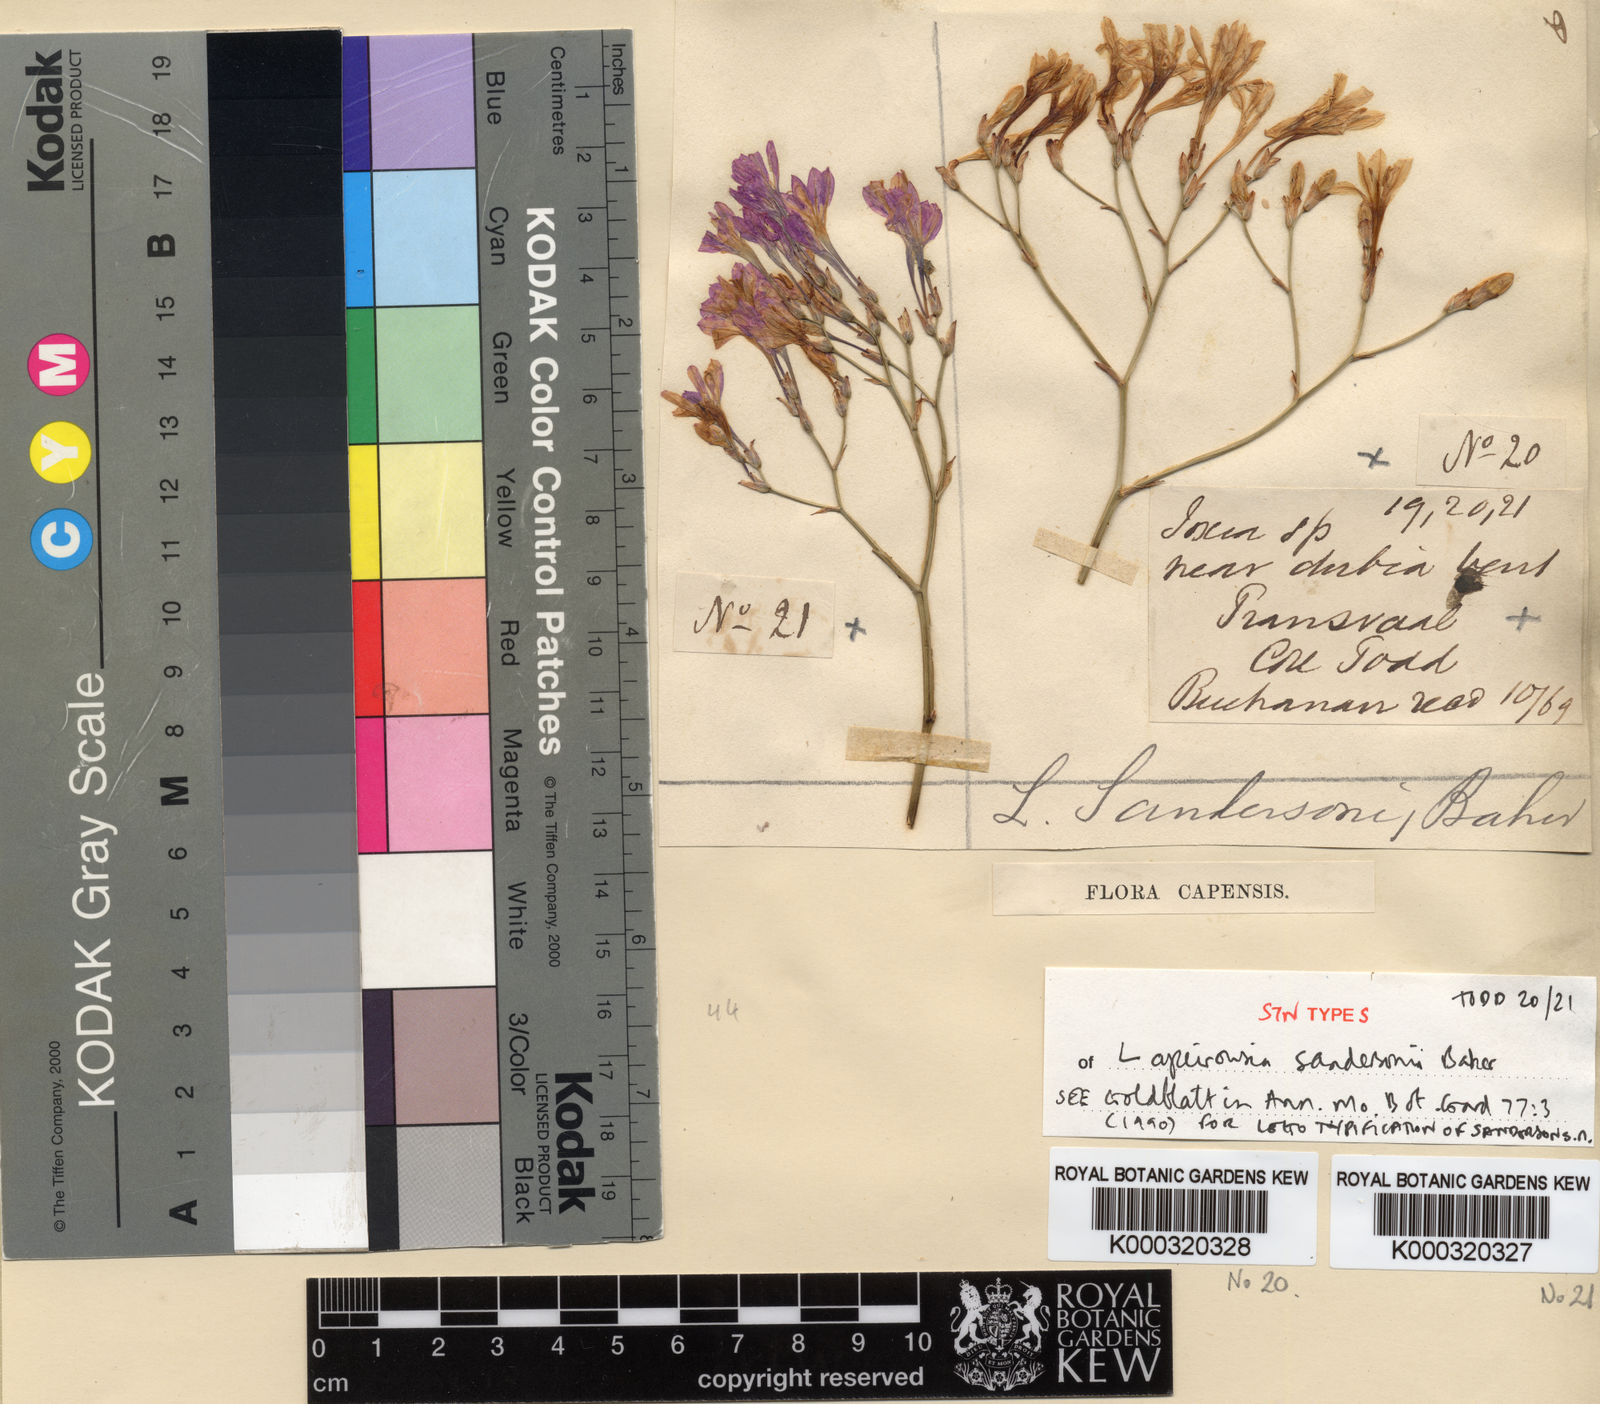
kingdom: Plantae
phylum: Tracheophyta
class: Liliopsida
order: Asparagales
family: Iridaceae
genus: Afrosolen
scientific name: Afrosolen sandersonii
